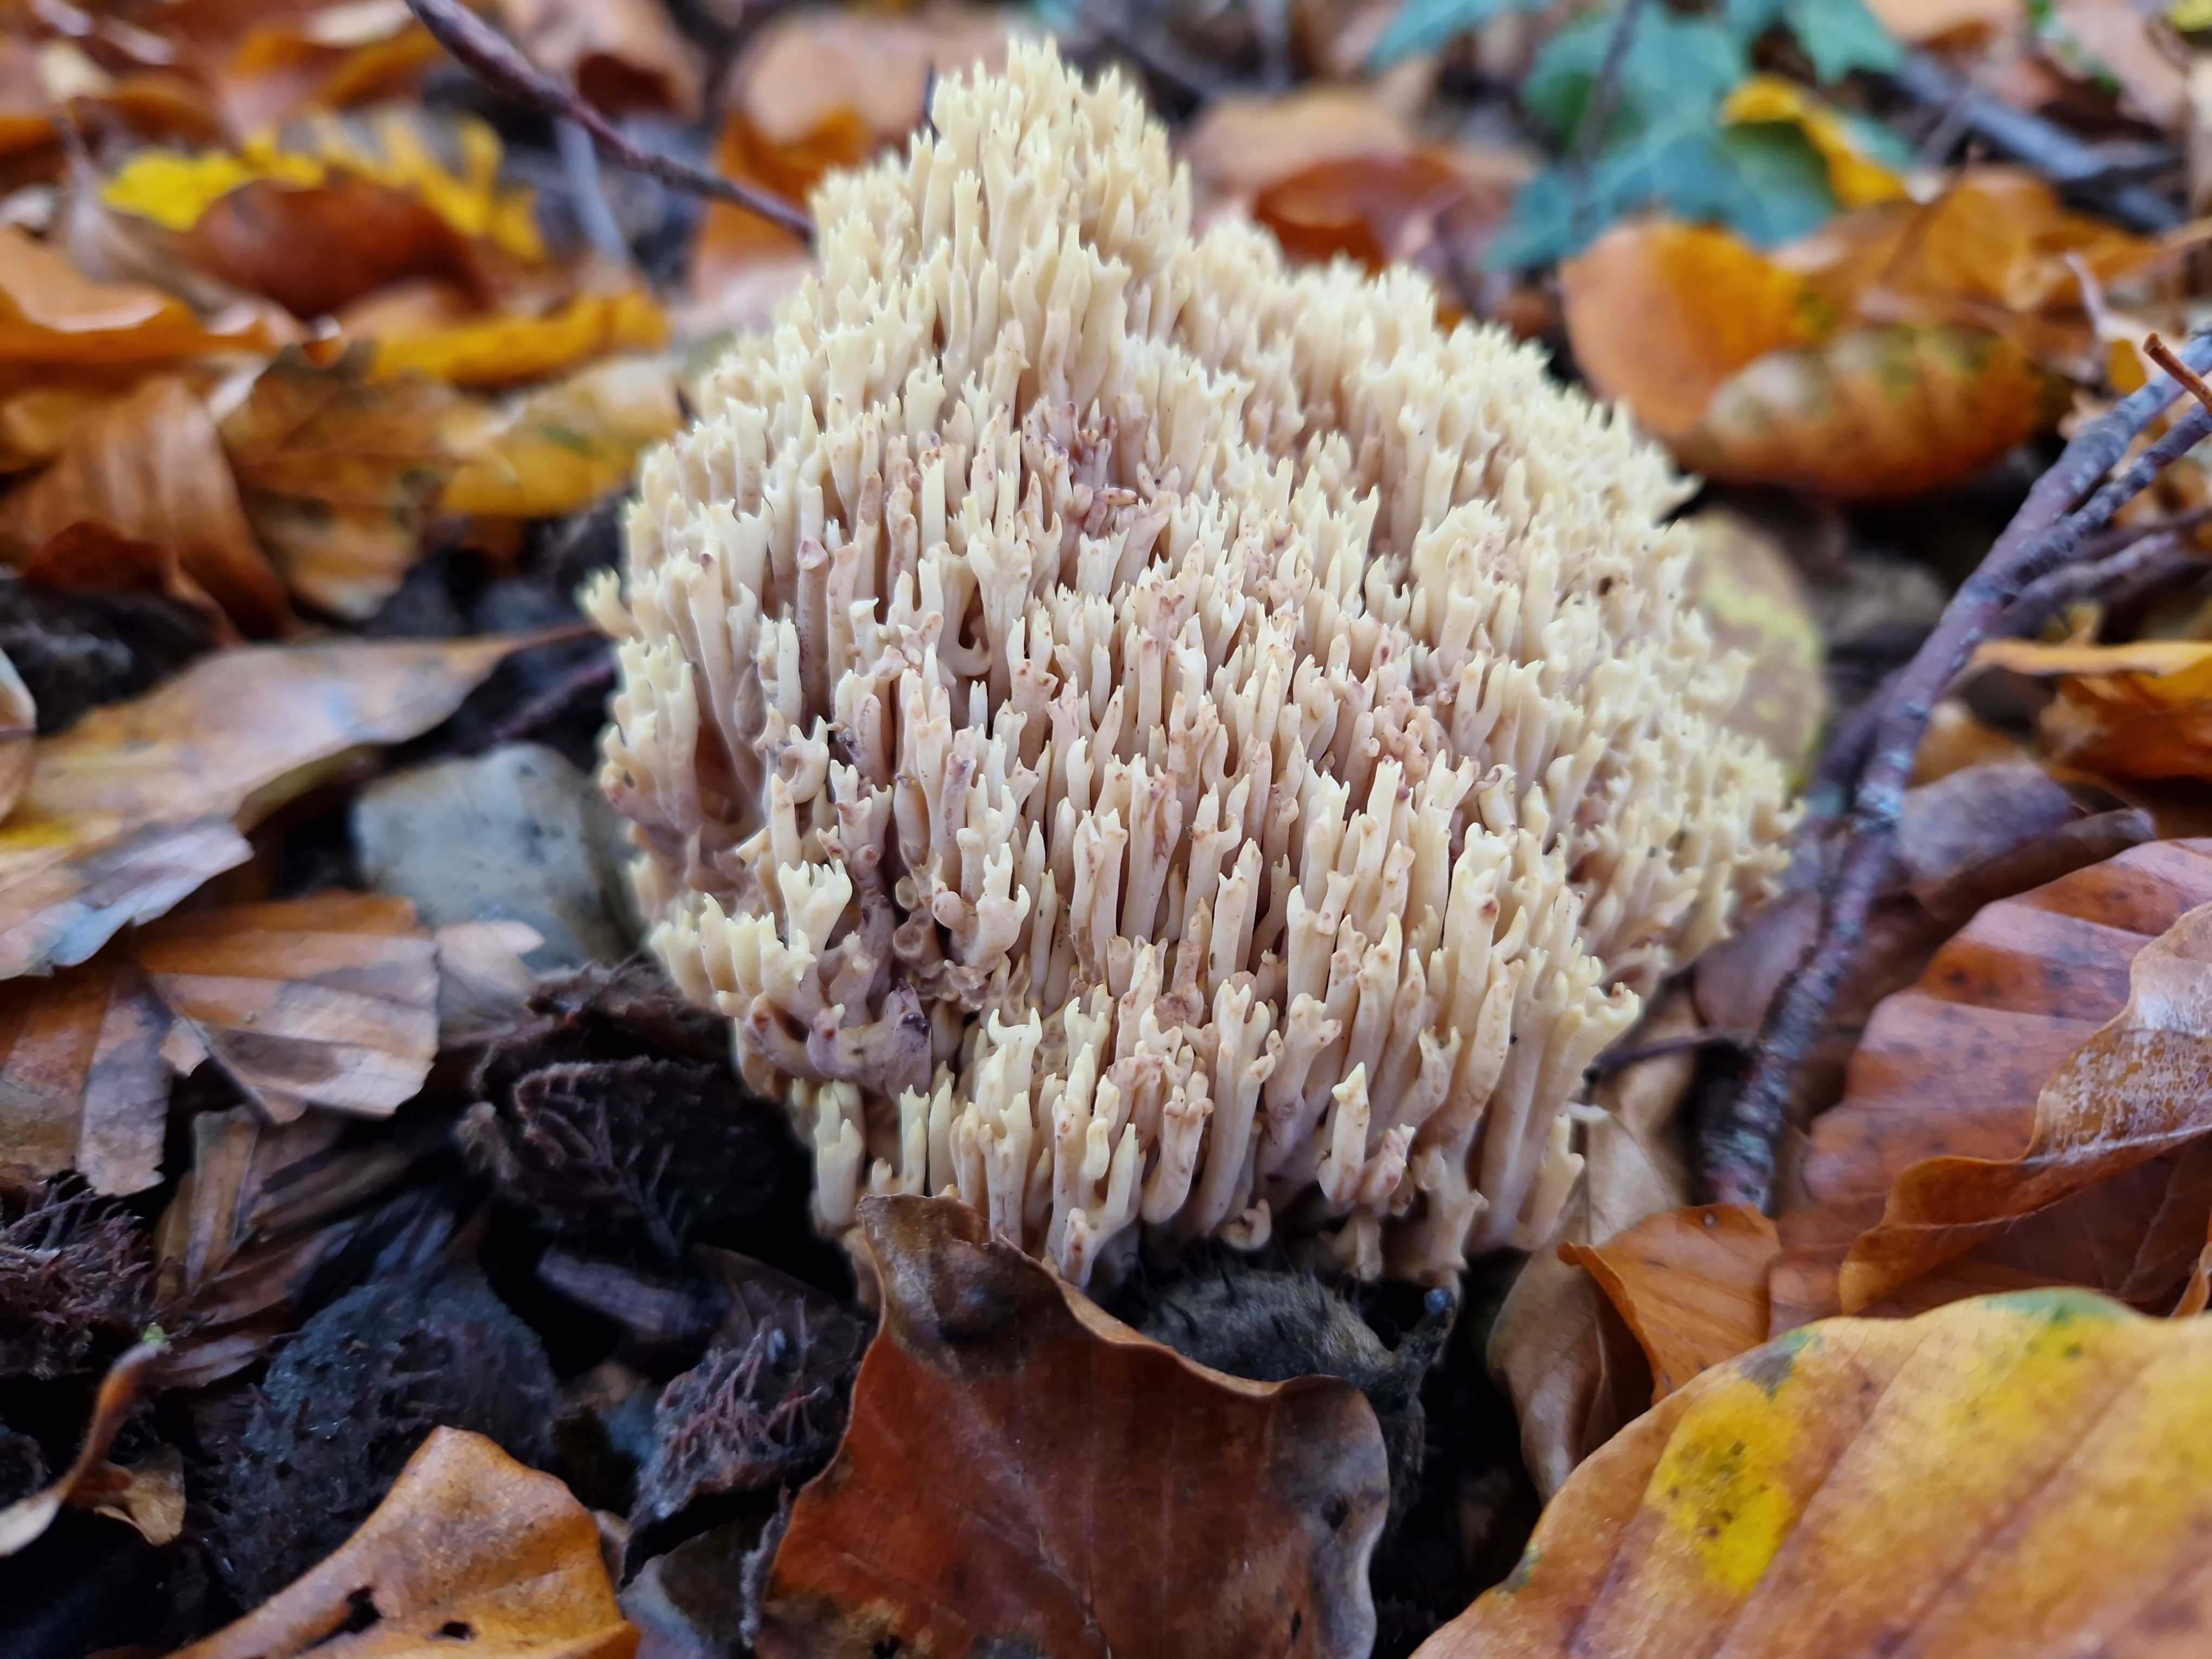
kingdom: Fungi
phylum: Basidiomycota
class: Agaricomycetes
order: Gomphales
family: Gomphaceae
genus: Ramaria
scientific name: Ramaria stricta
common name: rank koralsvamp
